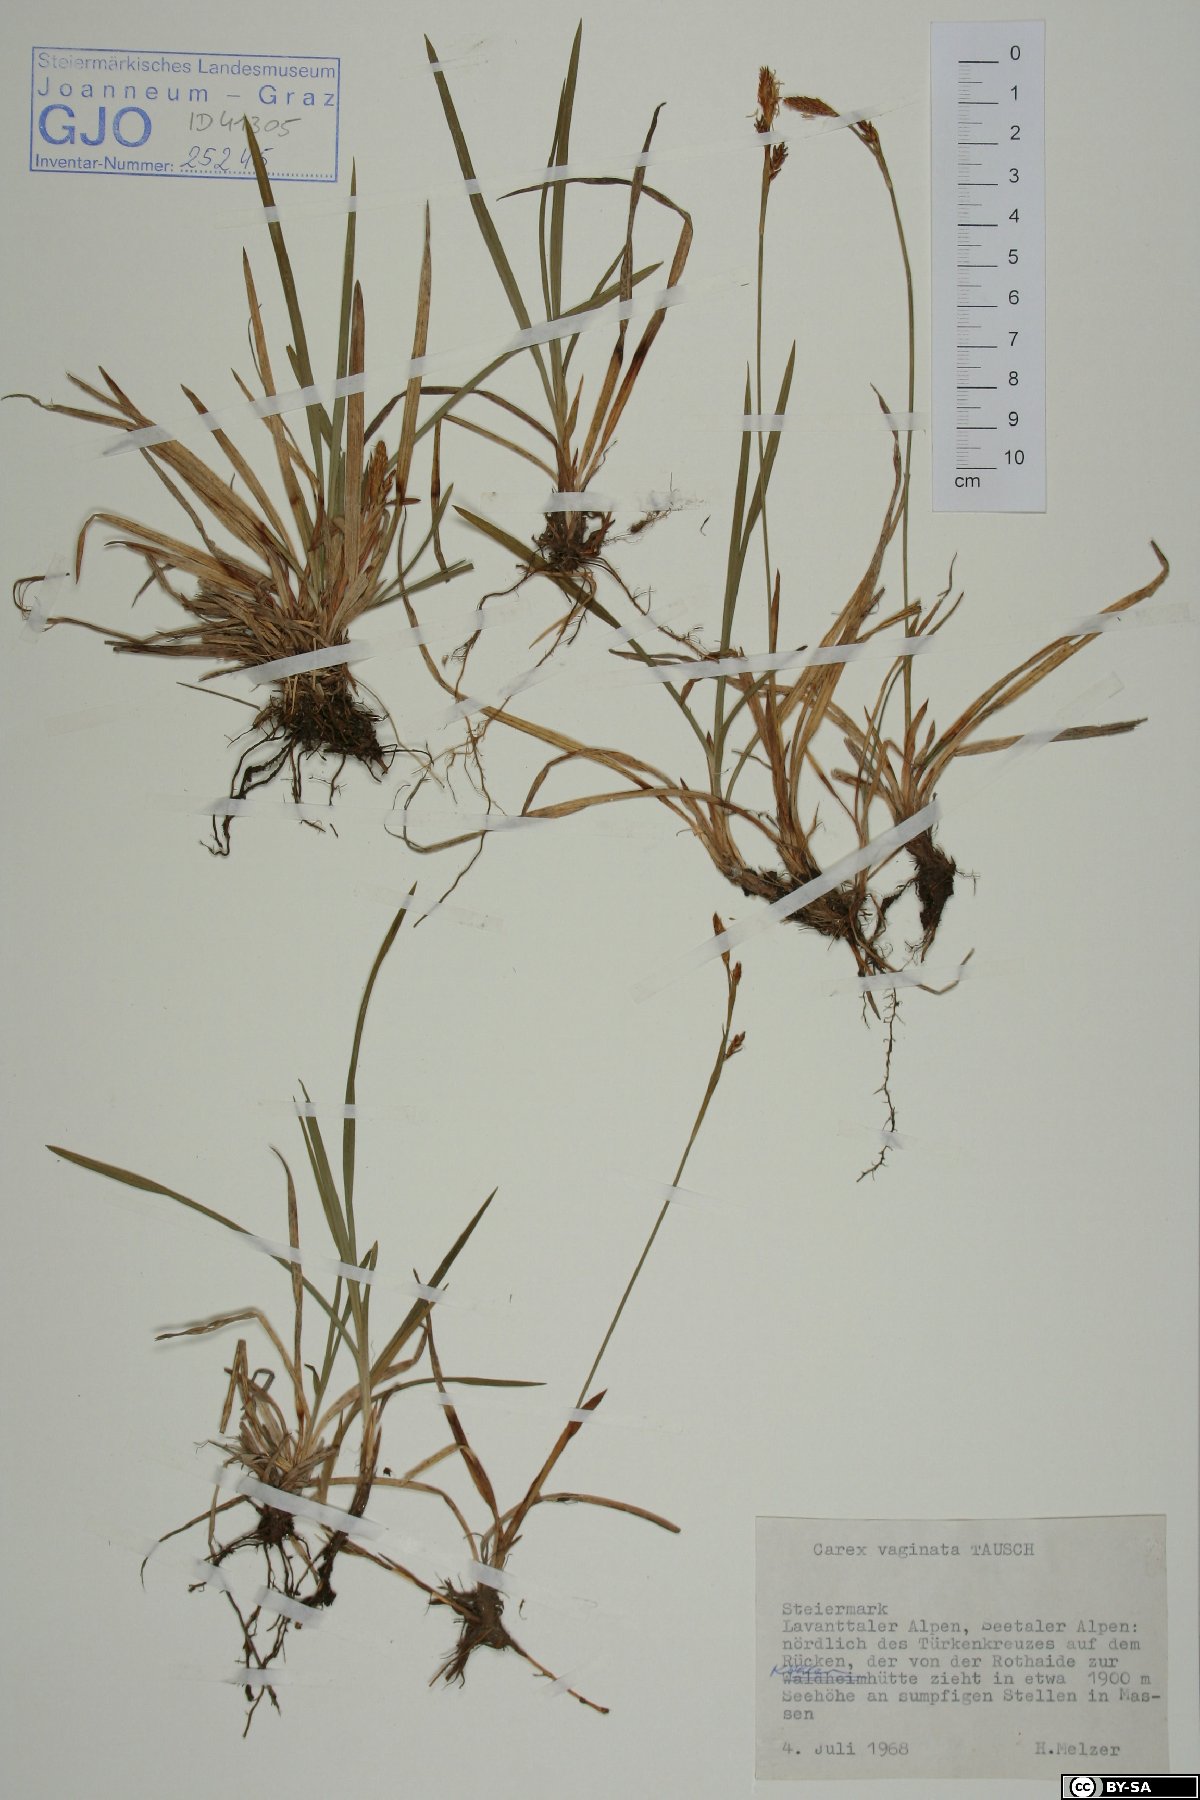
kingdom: Plantae
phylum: Tracheophyta
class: Liliopsida
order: Poales
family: Cyperaceae
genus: Carex
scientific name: Carex vaginata
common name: Sheathed sedge
